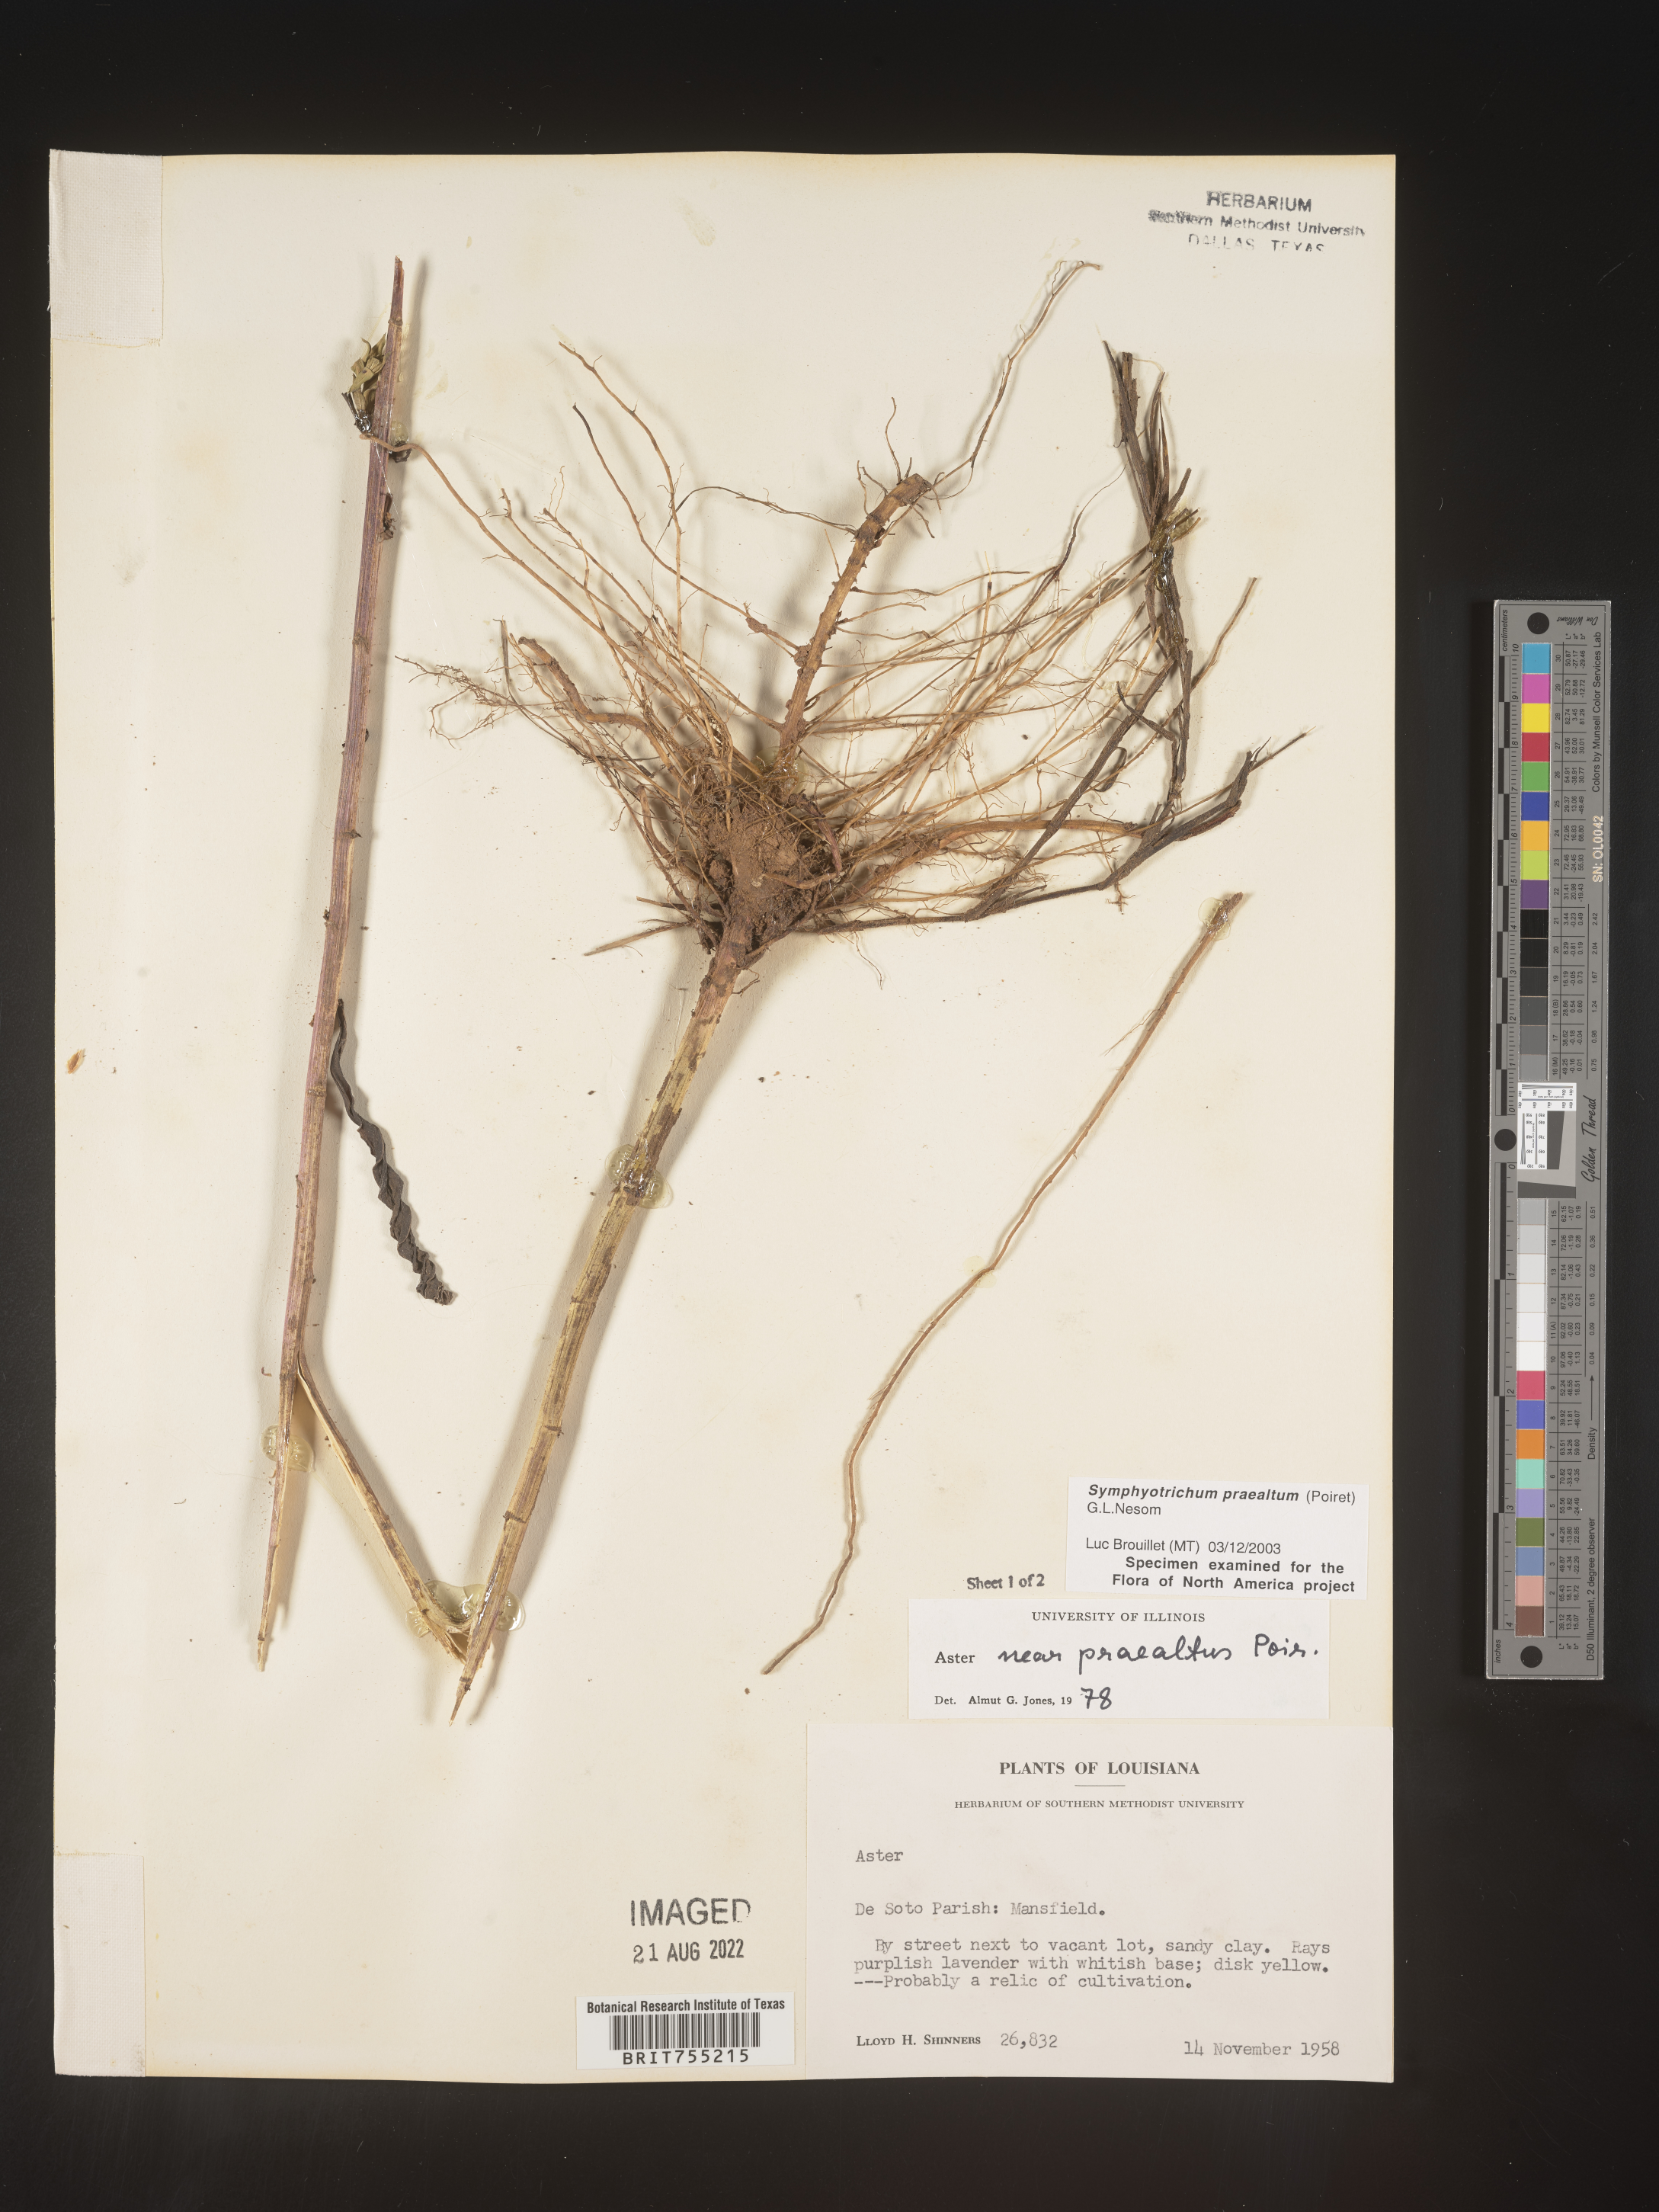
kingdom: Plantae
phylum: Tracheophyta
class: Magnoliopsida
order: Asterales
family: Asteraceae
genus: Symphyotrichum
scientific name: Symphyotrichum praealtum
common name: Willow aster
